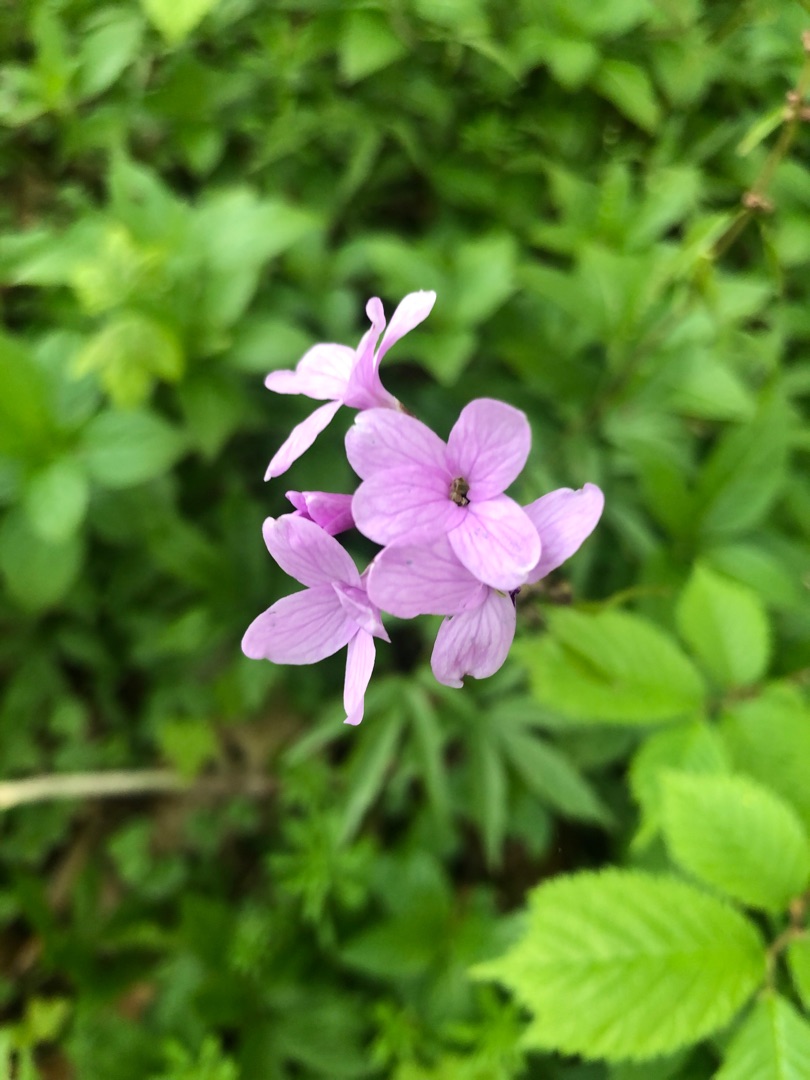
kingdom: Plantae
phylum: Tracheophyta
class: Magnoliopsida
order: Brassicales
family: Brassicaceae
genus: Cardamine
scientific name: Cardamine bulbifera
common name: Tandrod
